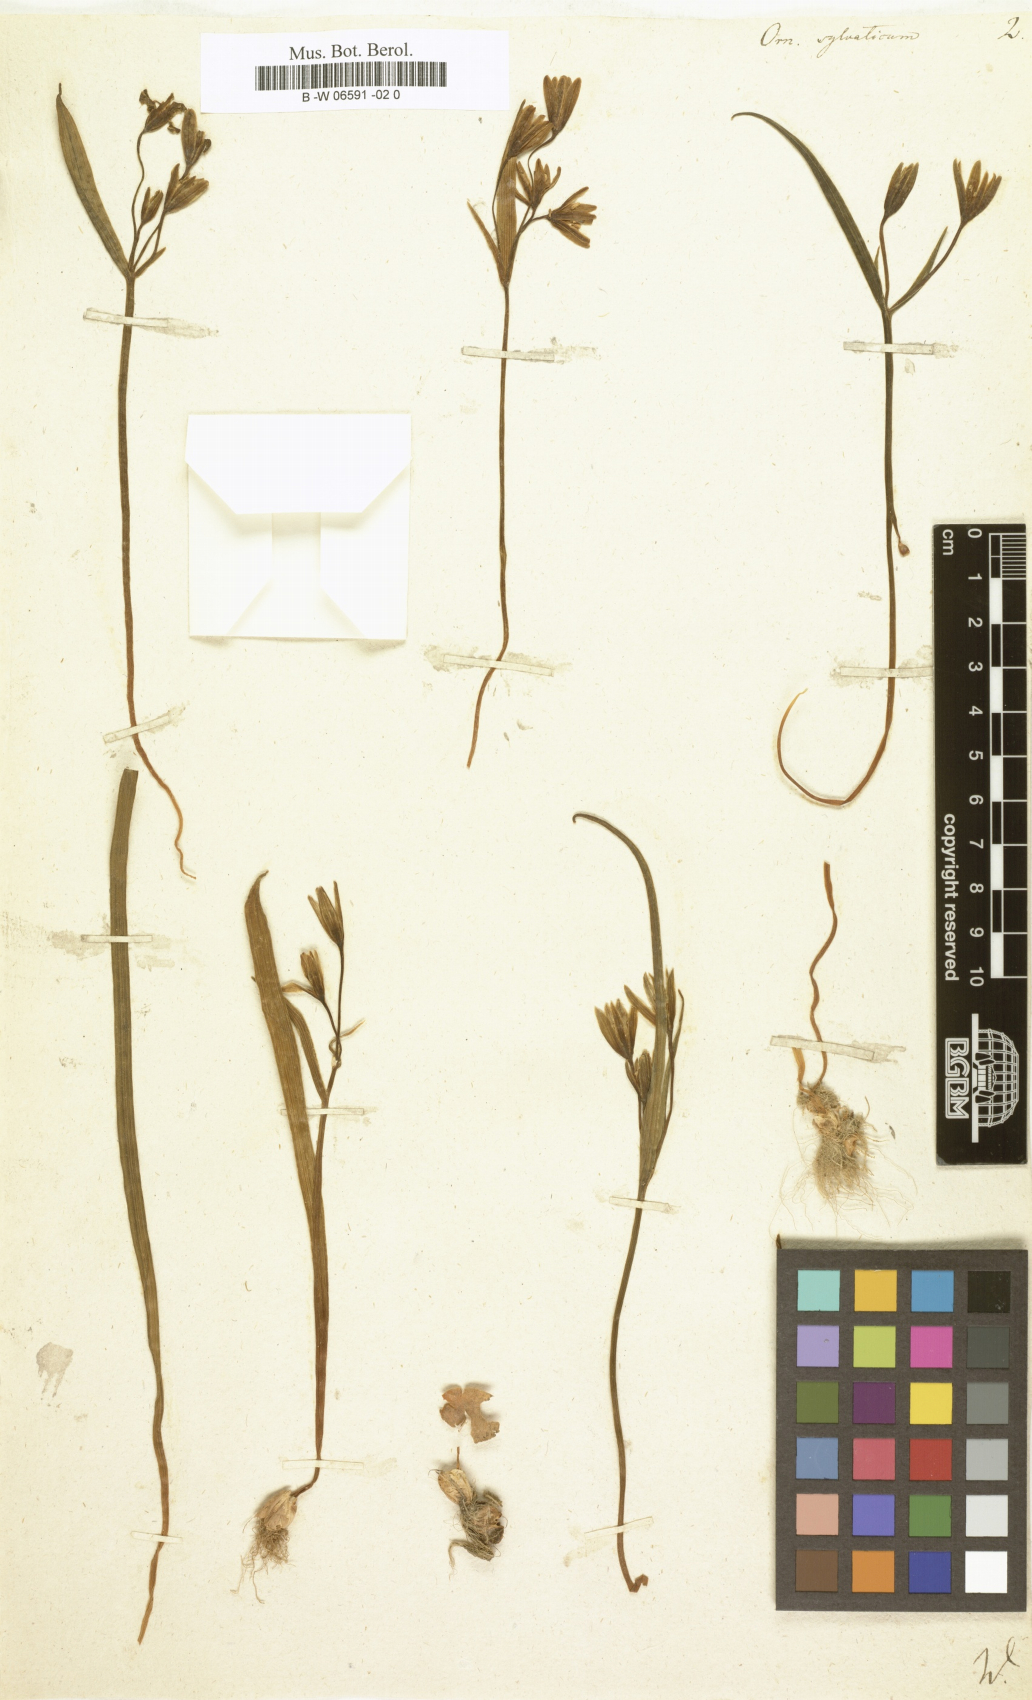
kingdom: Plantae
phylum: Tracheophyta
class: Liliopsida
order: Liliales
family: Liliaceae
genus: Gagea
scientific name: Gagea lutea
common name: Yellow star-of-bethlehem
